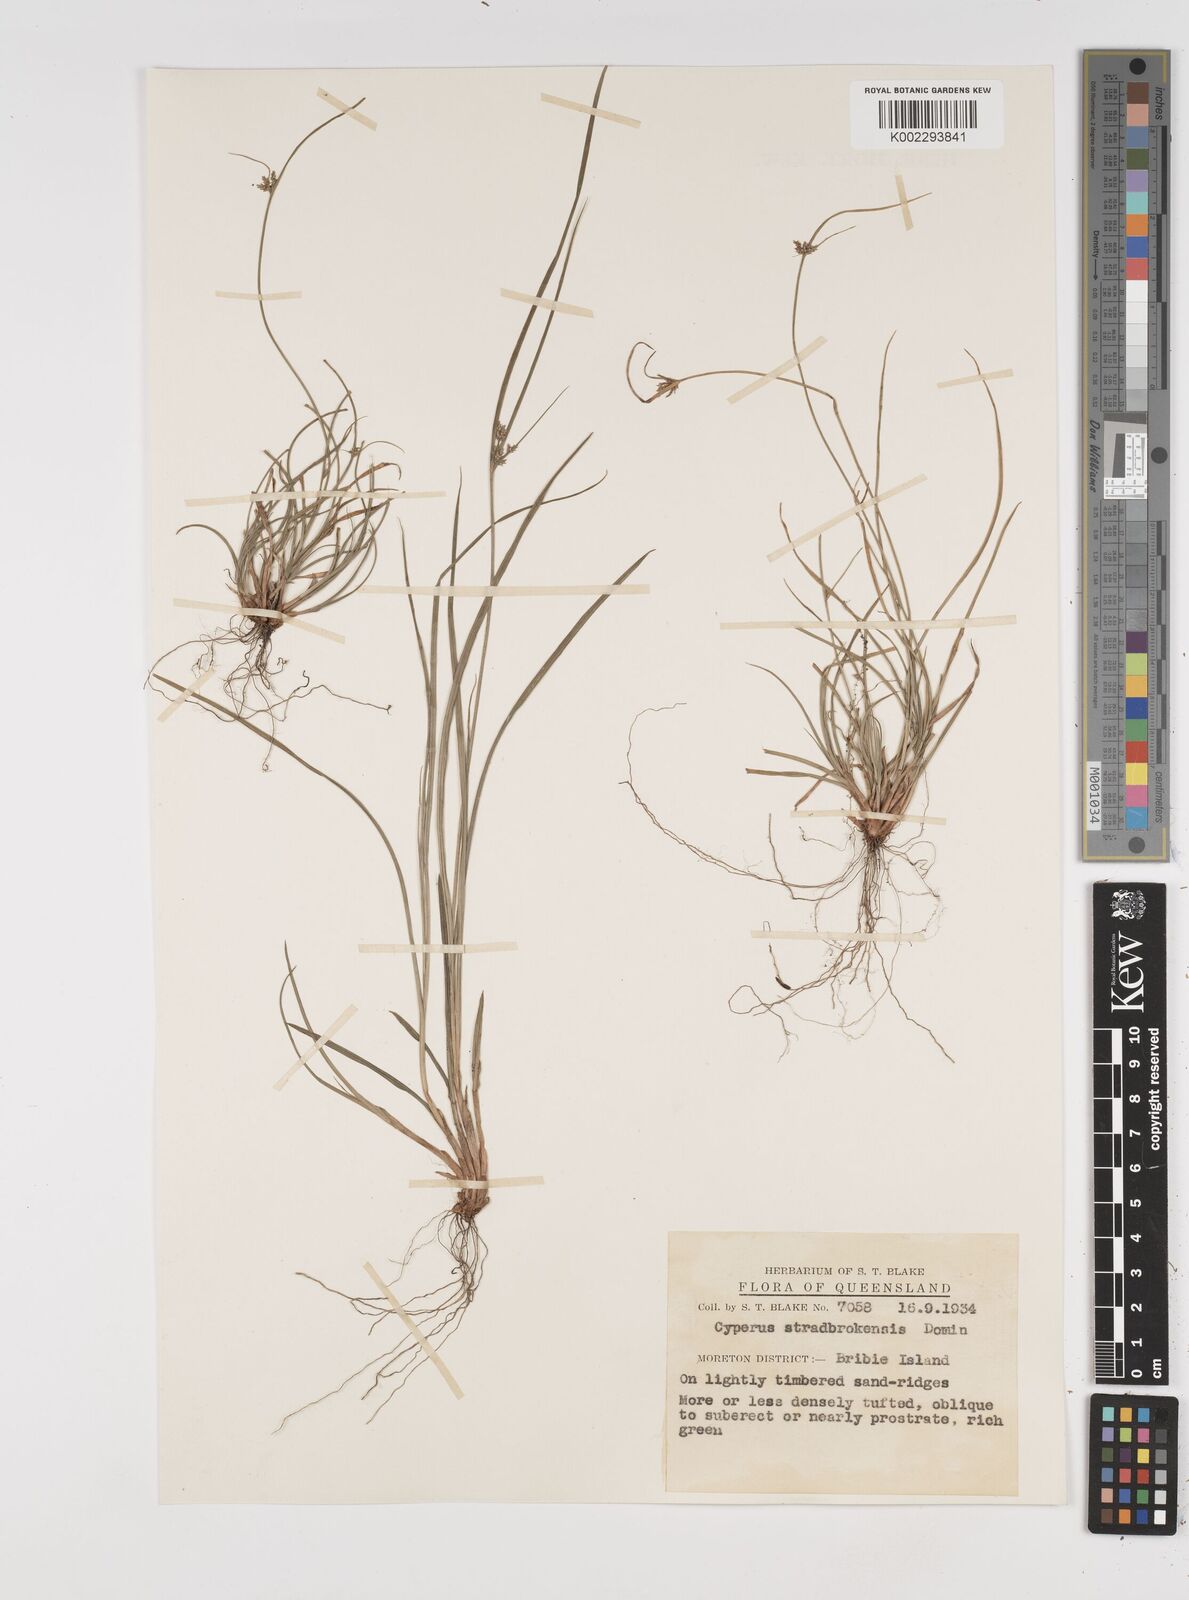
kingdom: Plantae
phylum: Tracheophyta
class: Liliopsida
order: Poales
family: Cyperaceae
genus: Cyperus
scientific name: Cyperus stradbrokensis
